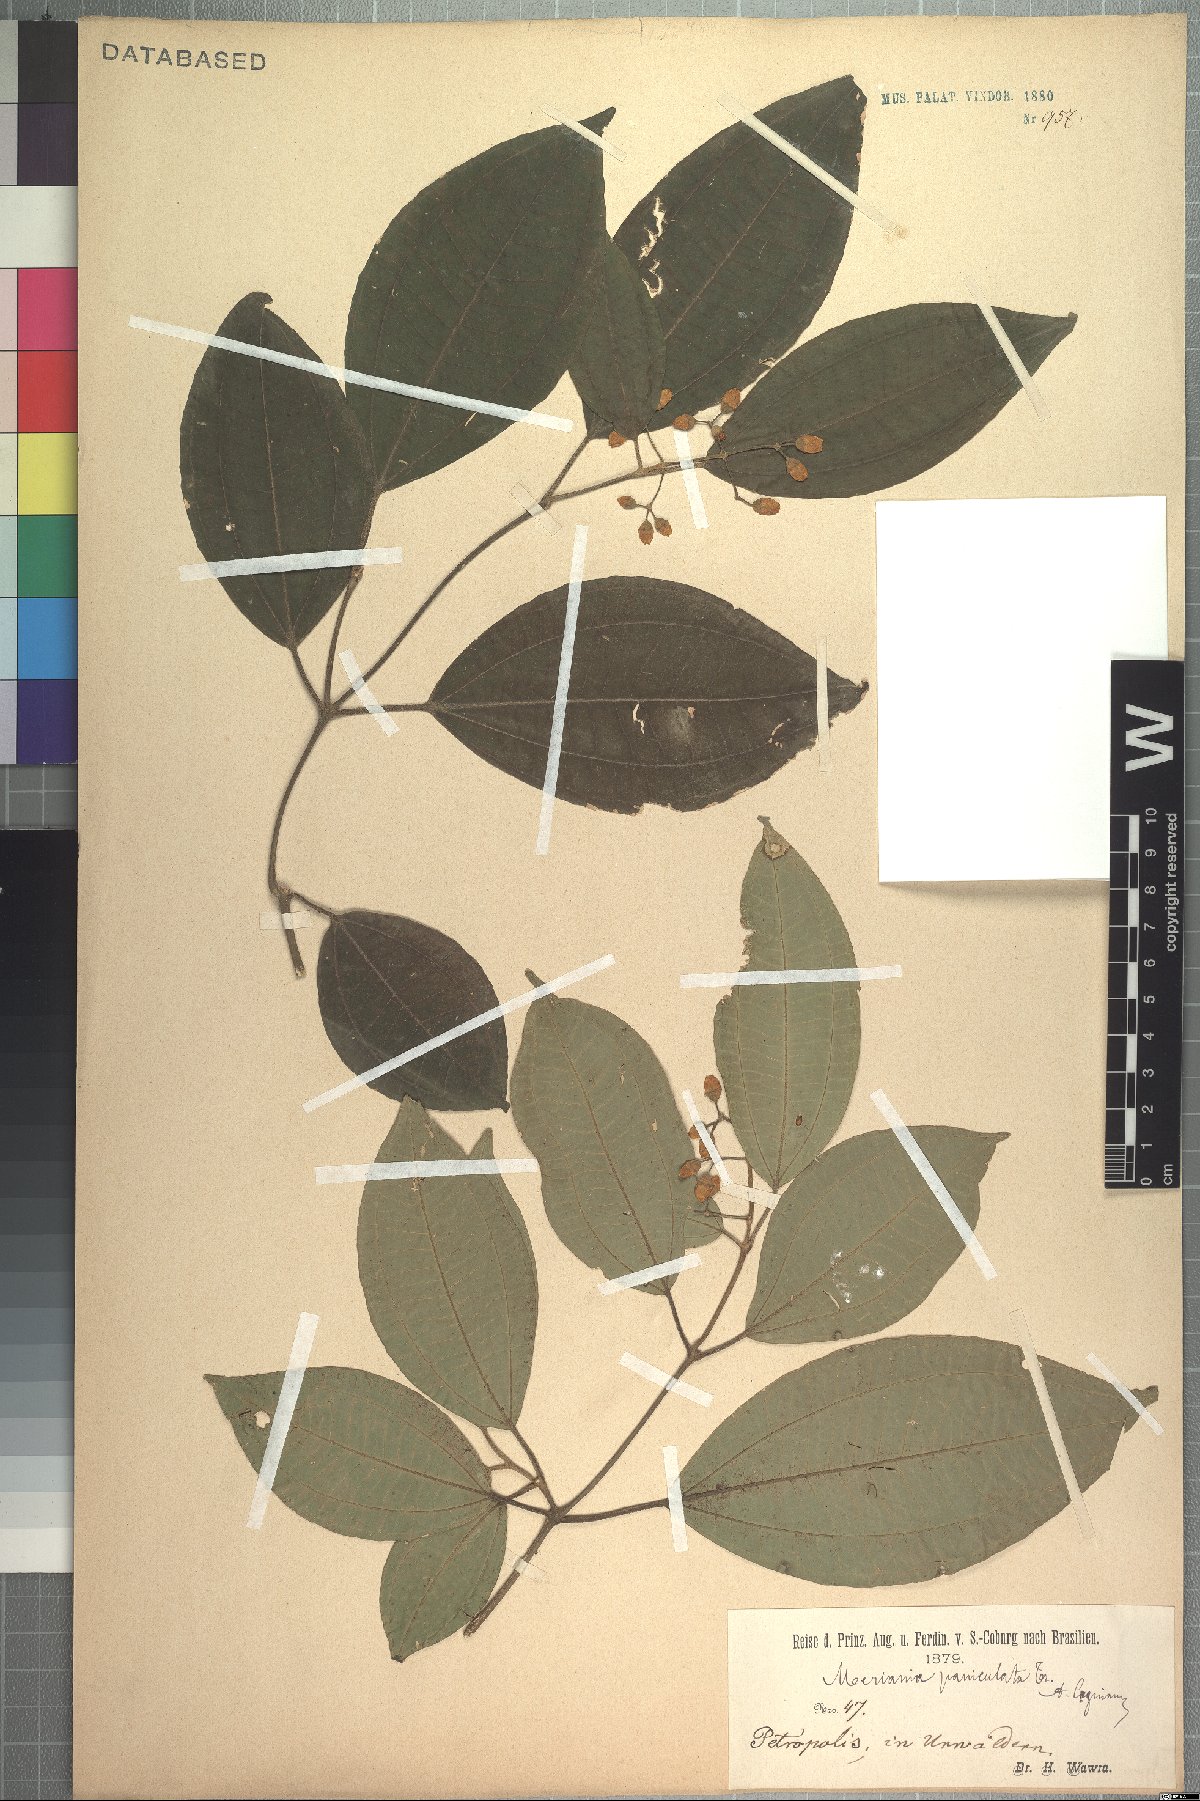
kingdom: Plantae
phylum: Tracheophyta
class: Magnoliopsida
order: Myrtales
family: Melastomataceae
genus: Meriania
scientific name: Meriania paniculata
